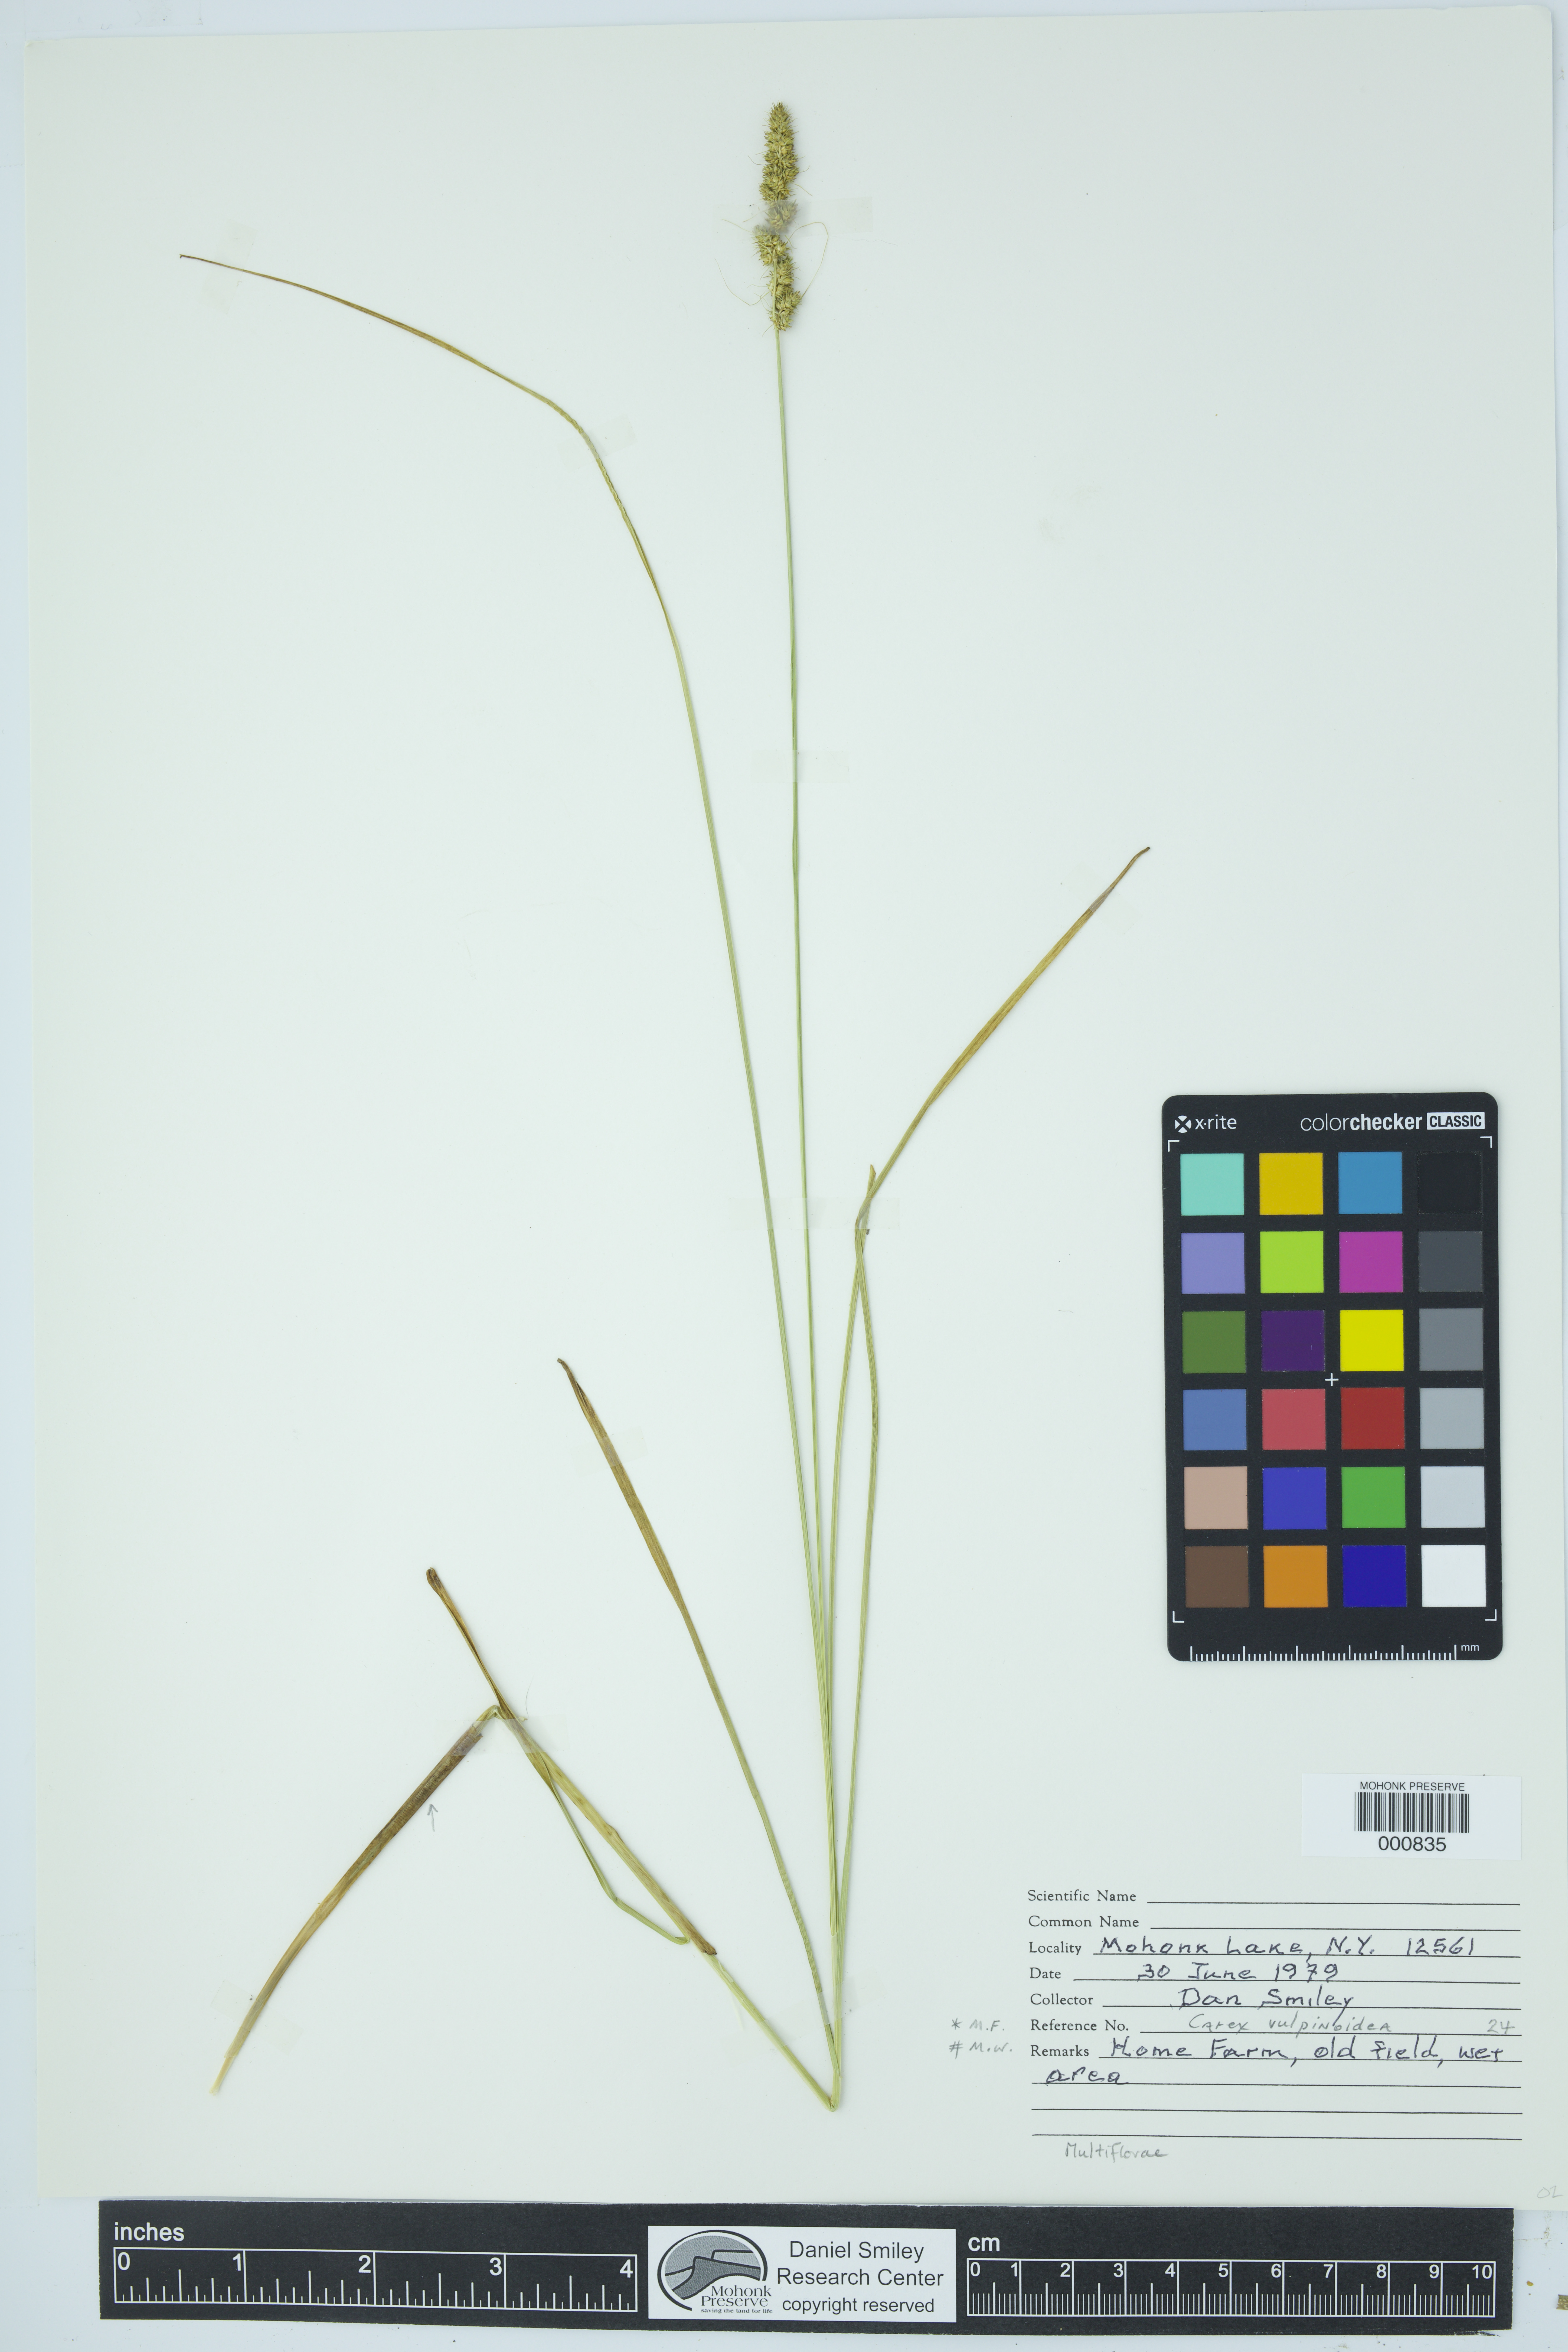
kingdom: Plantae
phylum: Tracheophyta
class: Liliopsida
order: Poales
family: Cyperaceae
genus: Carex
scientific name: Carex vulpinoidea
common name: American fox-sedge
